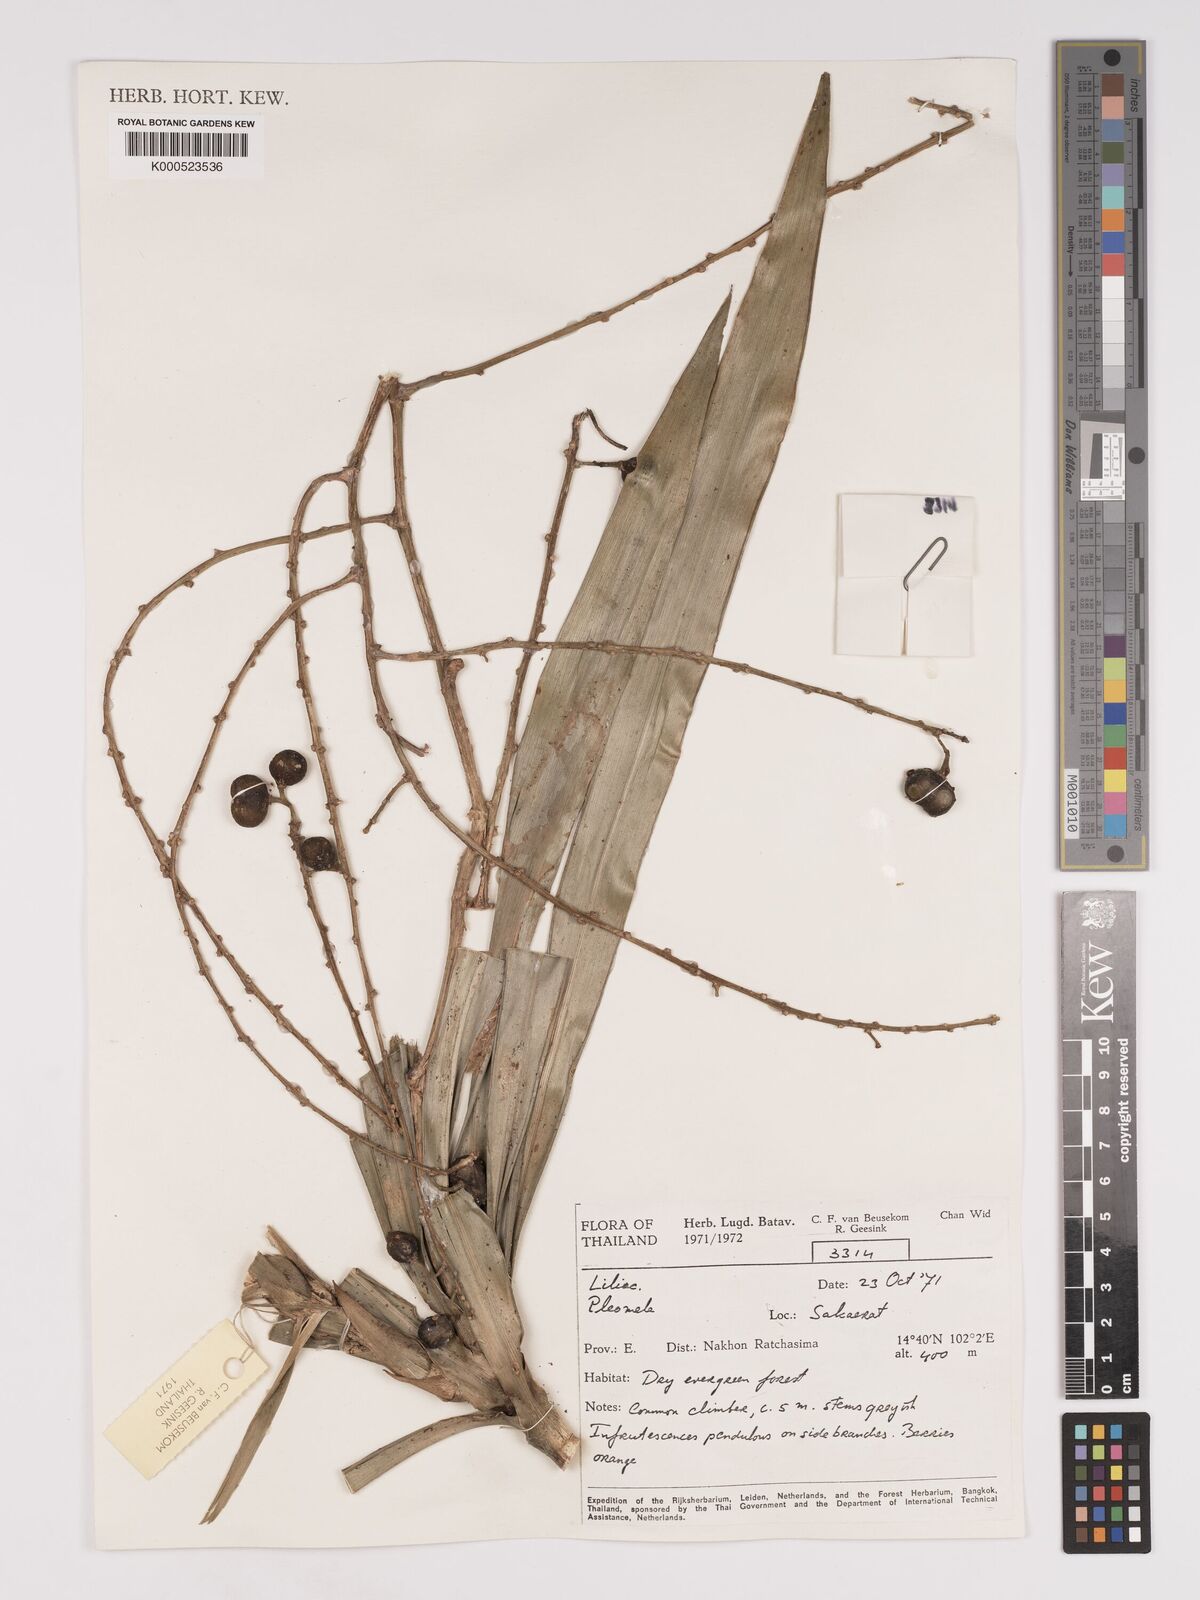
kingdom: Plantae
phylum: Tracheophyta
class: Liliopsida
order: Asparagales
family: Asparagaceae
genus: Dracaena
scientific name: Dracaena
